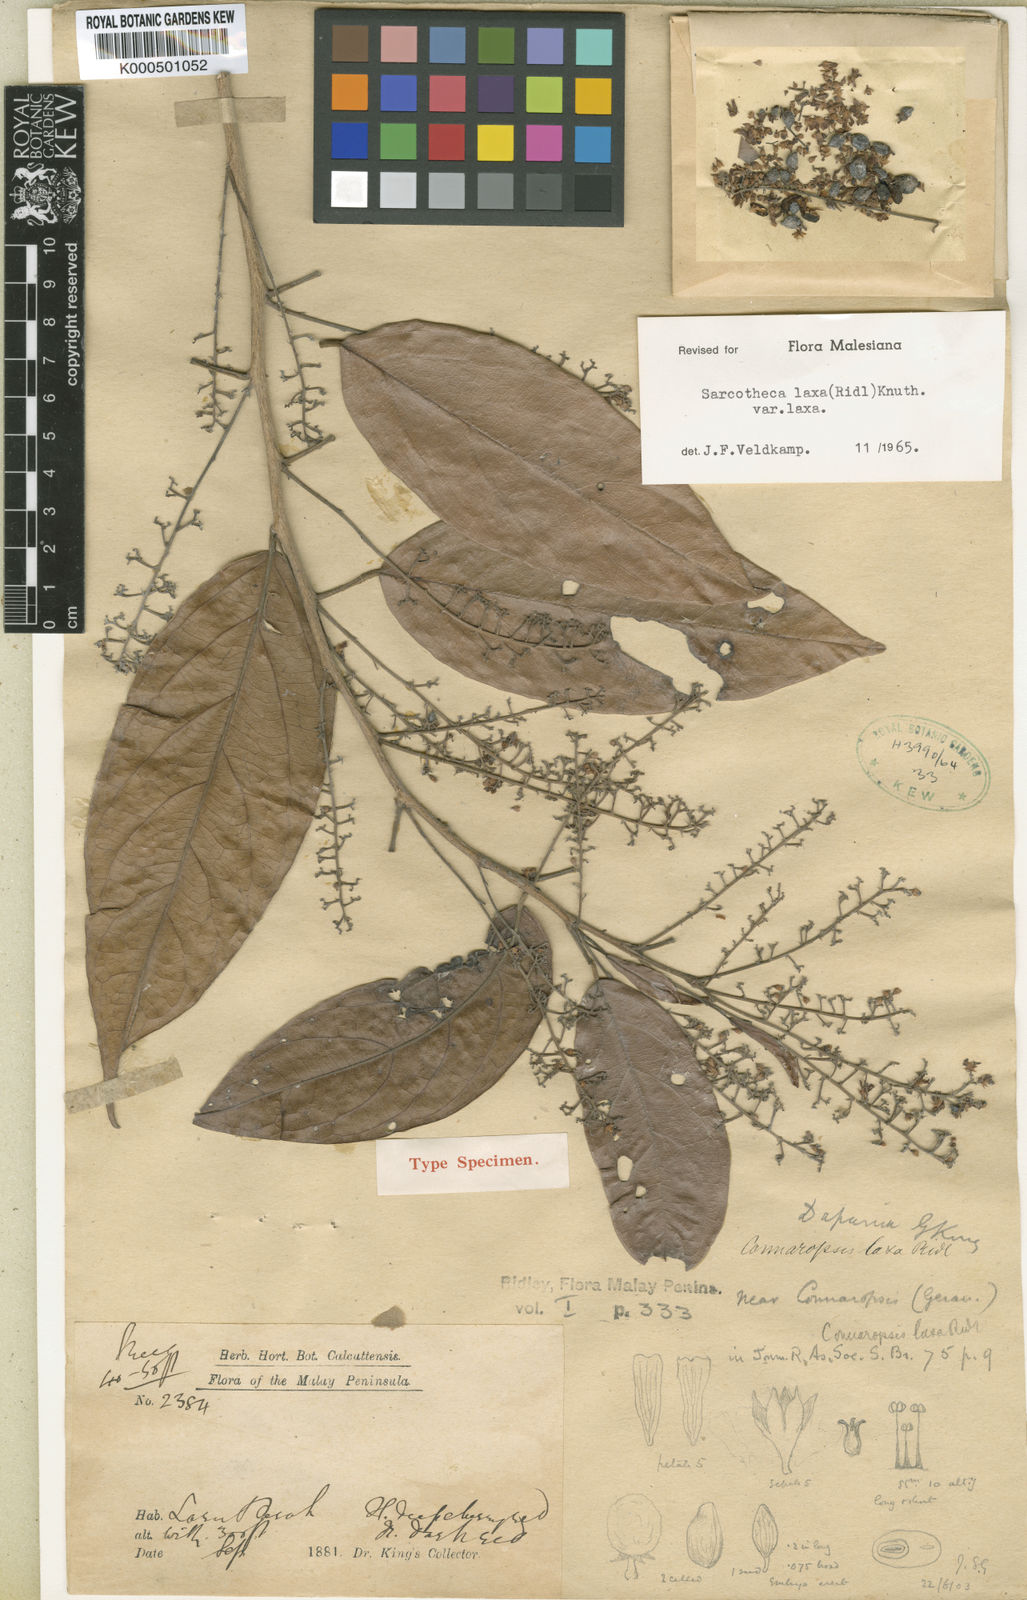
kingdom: Plantae
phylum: Tracheophyta
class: Magnoliopsida
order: Oxalidales
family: Oxalidaceae
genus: Sarcotheca
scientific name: Sarcotheca laxa
